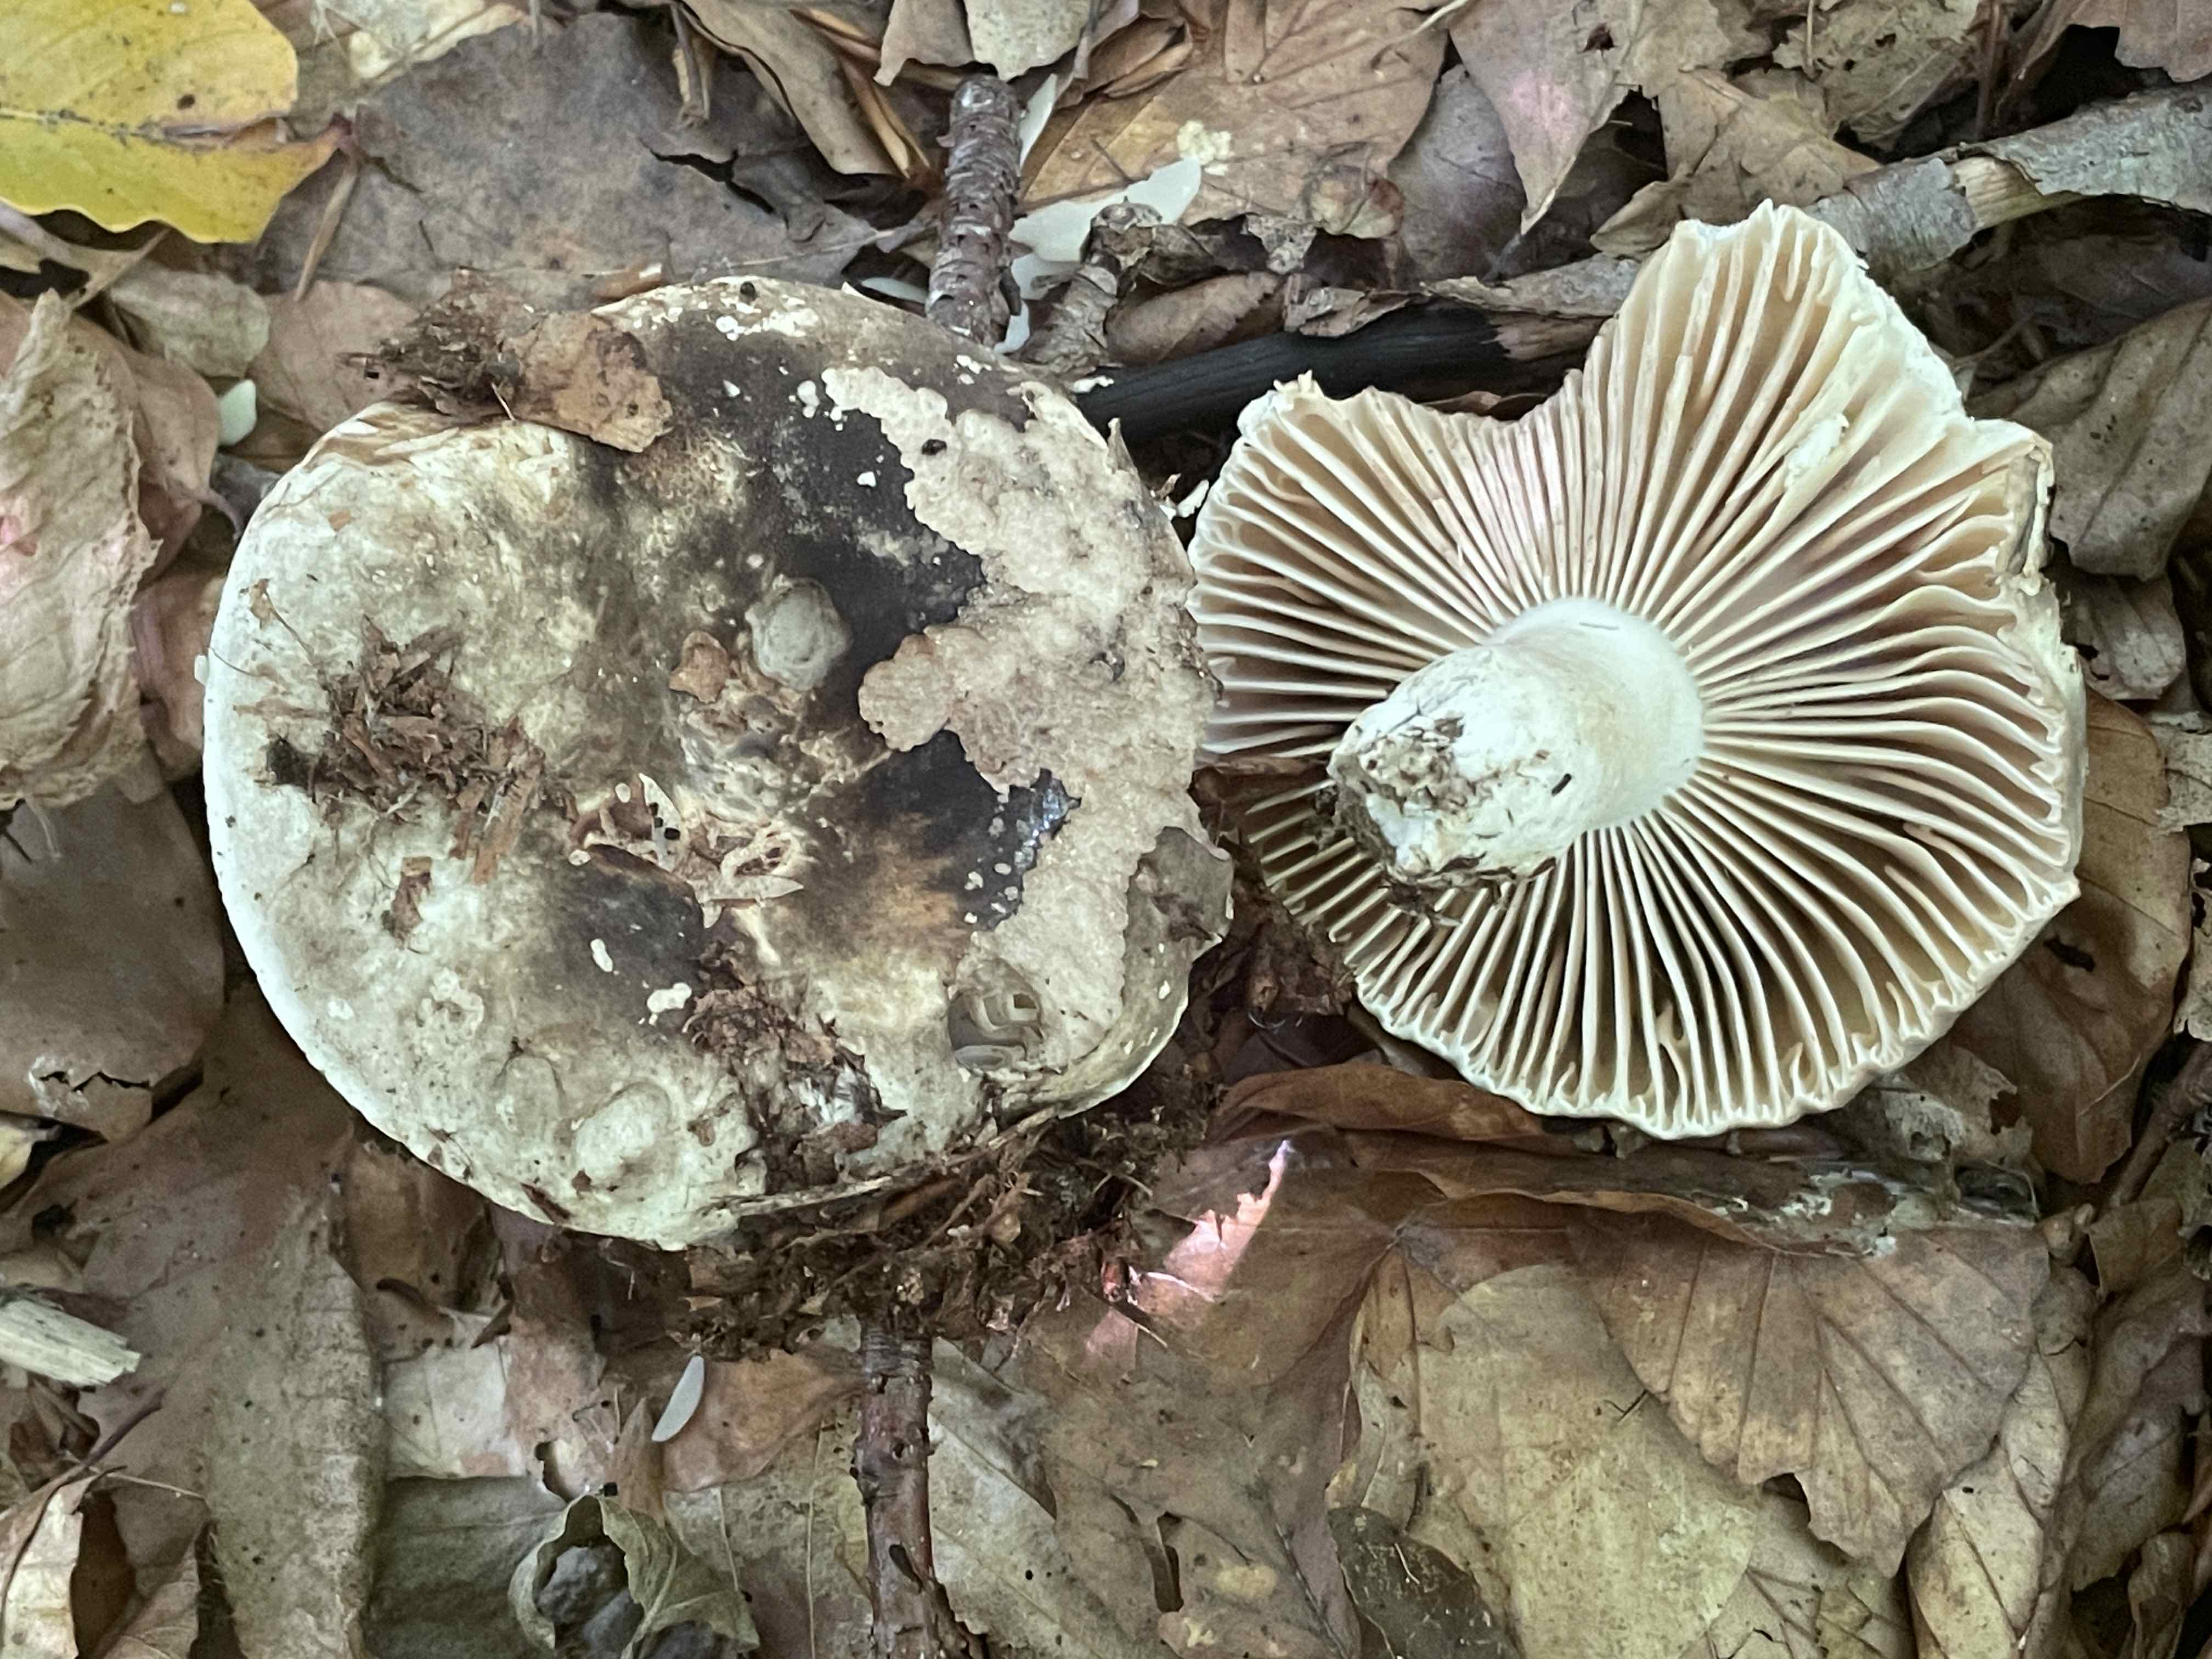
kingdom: Fungi
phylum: Basidiomycota
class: Agaricomycetes
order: Russulales
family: Russulaceae
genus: Russula
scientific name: Russula adusta
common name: sværtende skørhat
